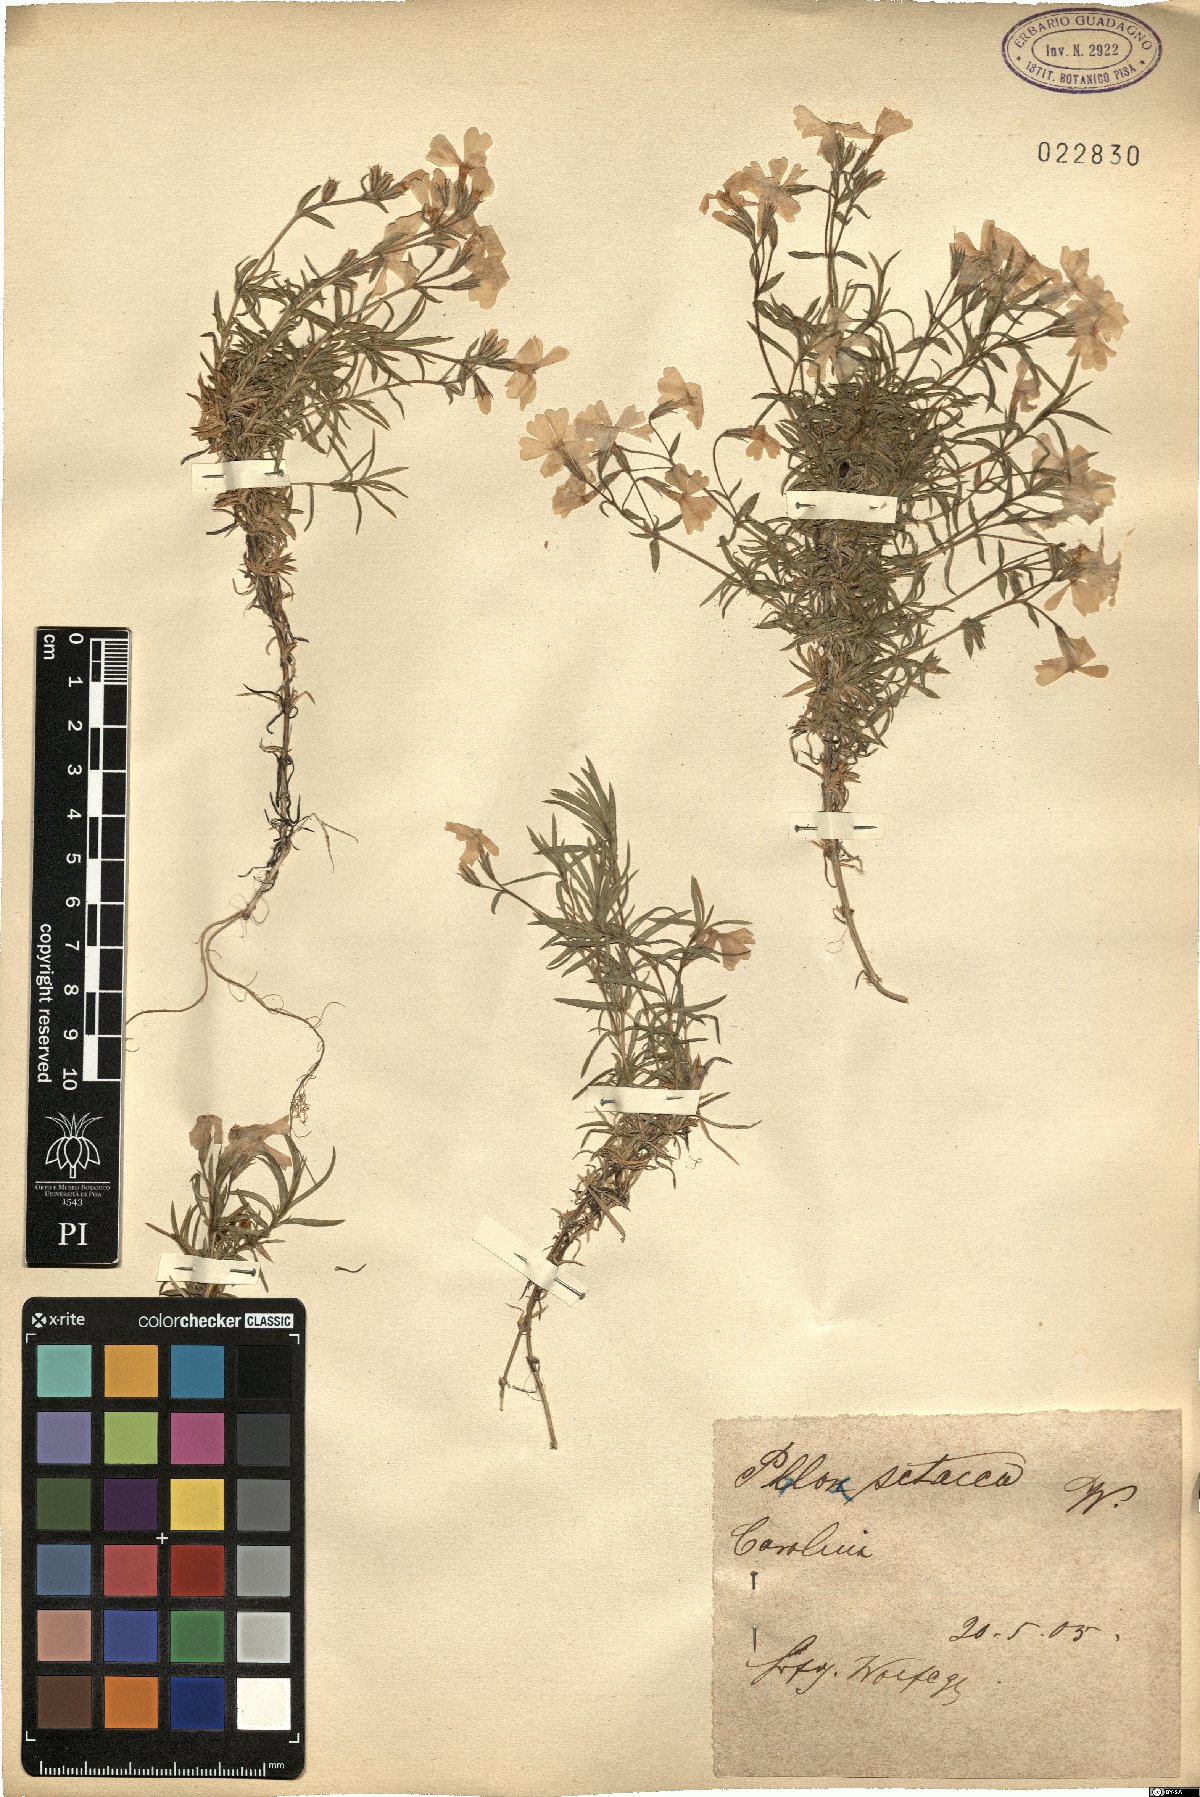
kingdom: Plantae
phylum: Tracheophyta
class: Magnoliopsida
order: Ericales
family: Polemoniaceae
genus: Phlox
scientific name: Phlox subulata
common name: Moss phlox
